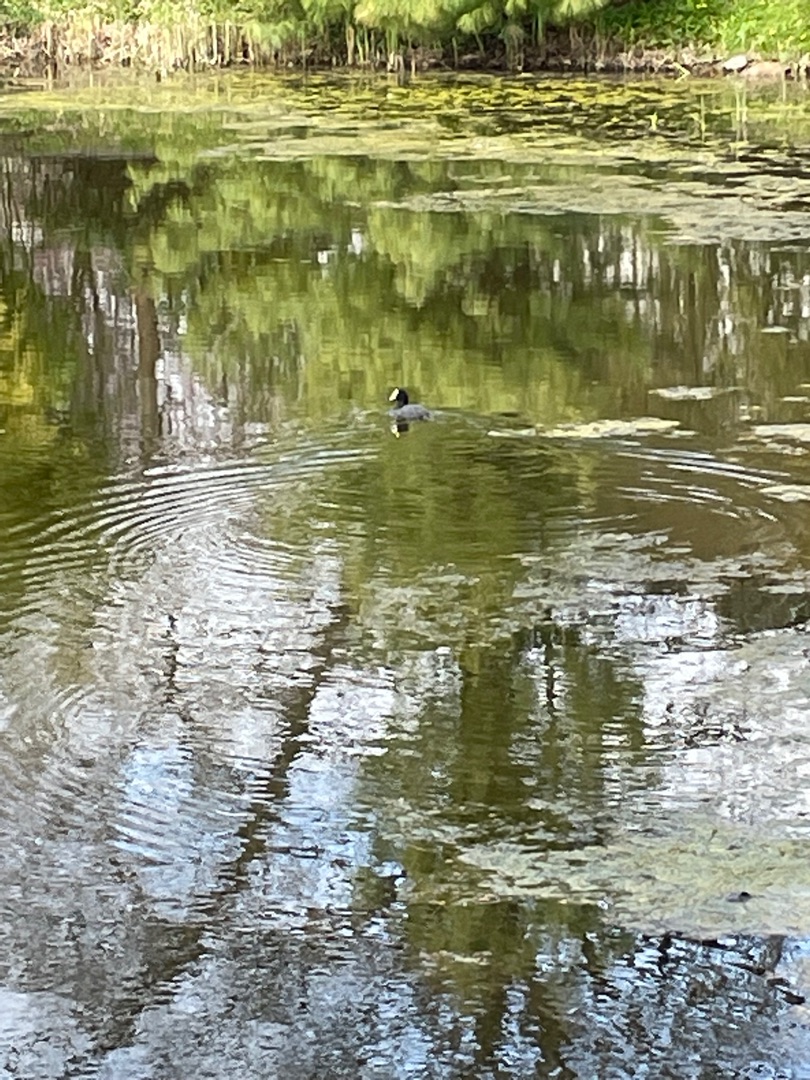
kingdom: Animalia
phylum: Chordata
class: Aves
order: Gruiformes
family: Rallidae
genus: Fulica
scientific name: Fulica atra
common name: Blishøne
